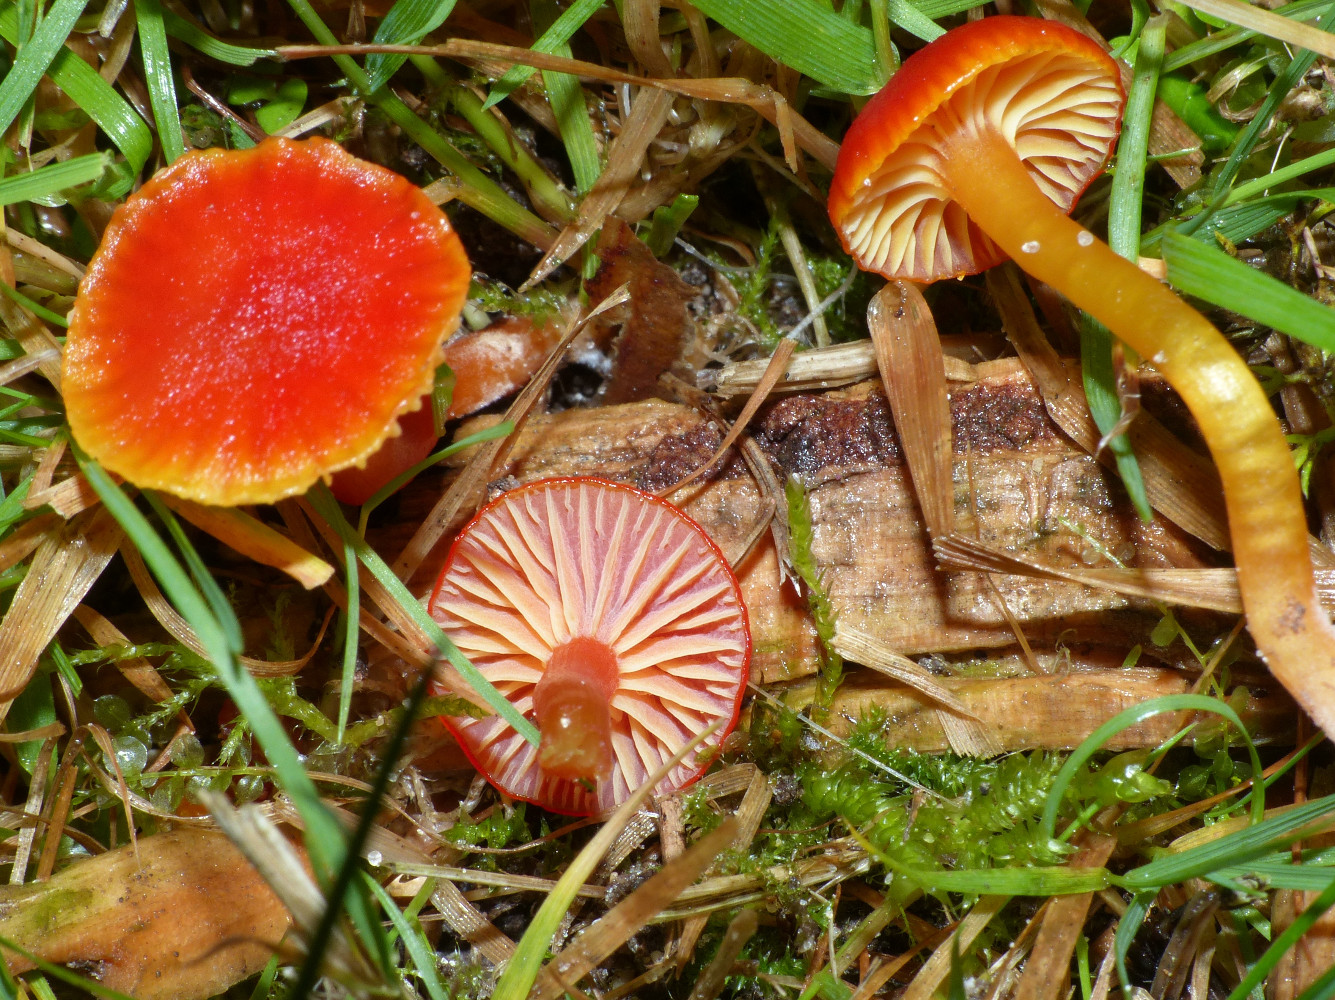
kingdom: Fungi
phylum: Basidiomycota
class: Agaricomycetes
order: Agaricales
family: Hygrophoraceae
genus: Hygrocybe
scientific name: Hygrocybe insipida
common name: liden vokshat
